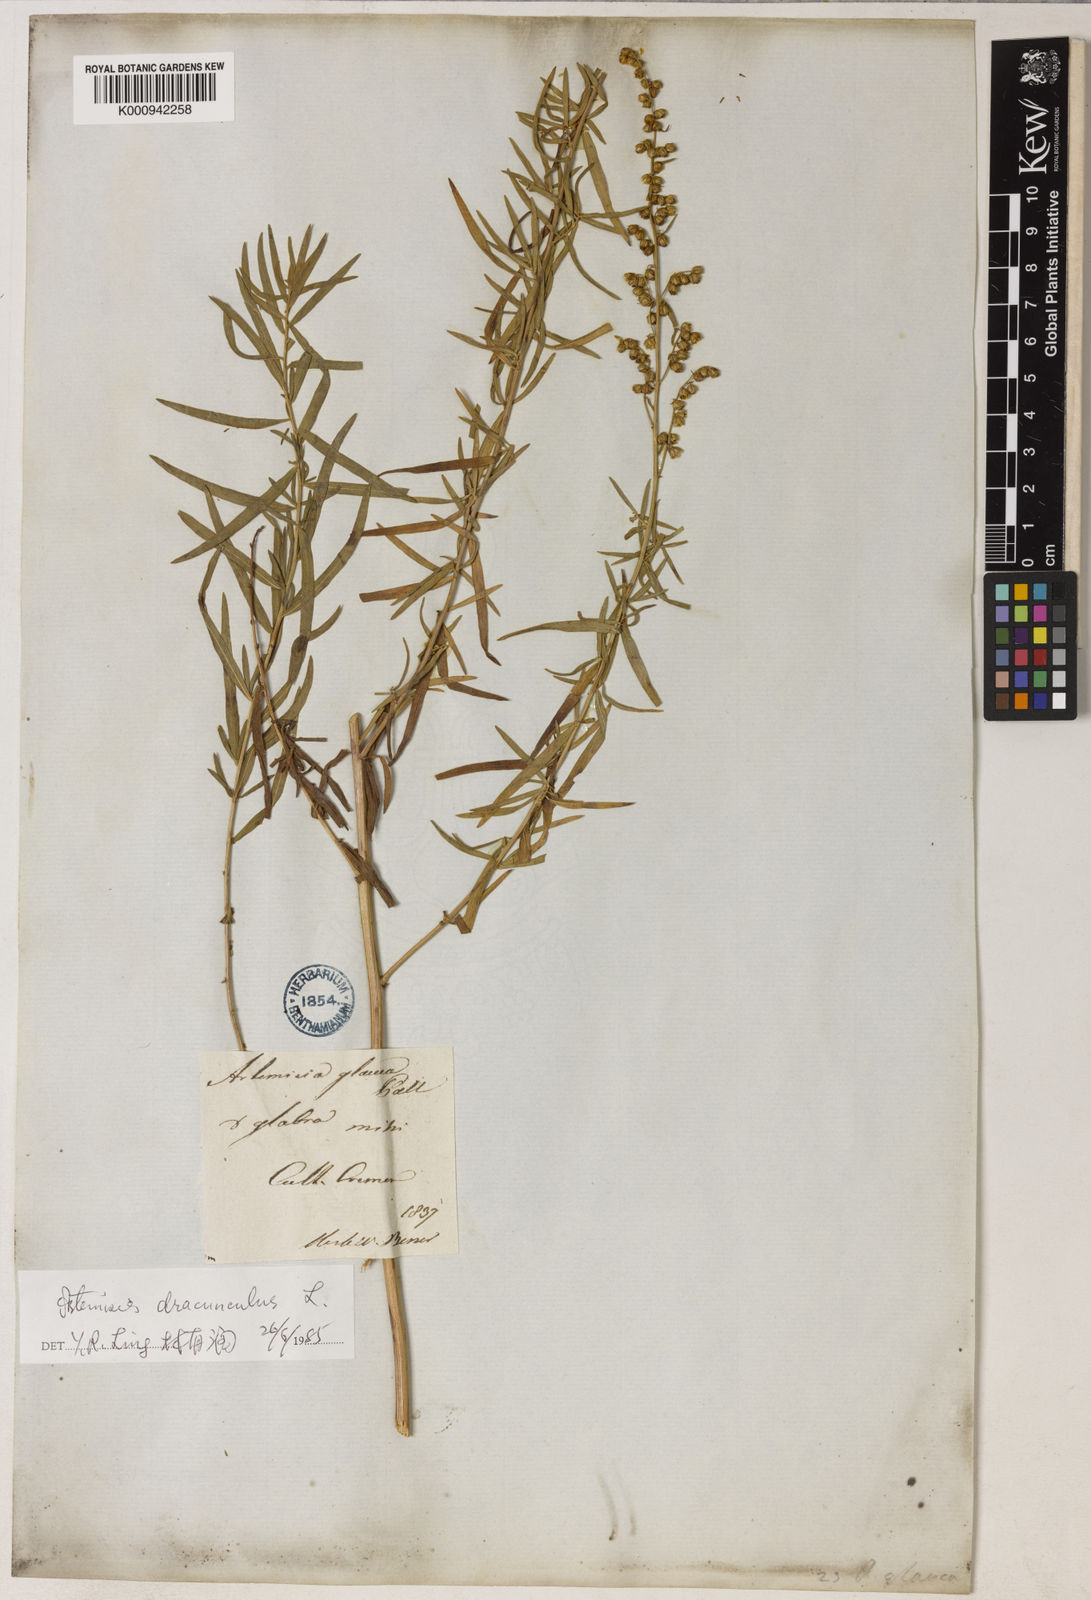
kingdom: Plantae
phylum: Tracheophyta
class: Magnoliopsida
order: Asterales
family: Asteraceae
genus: Artemisia
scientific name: Artemisia dracunculus
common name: Tarragon
